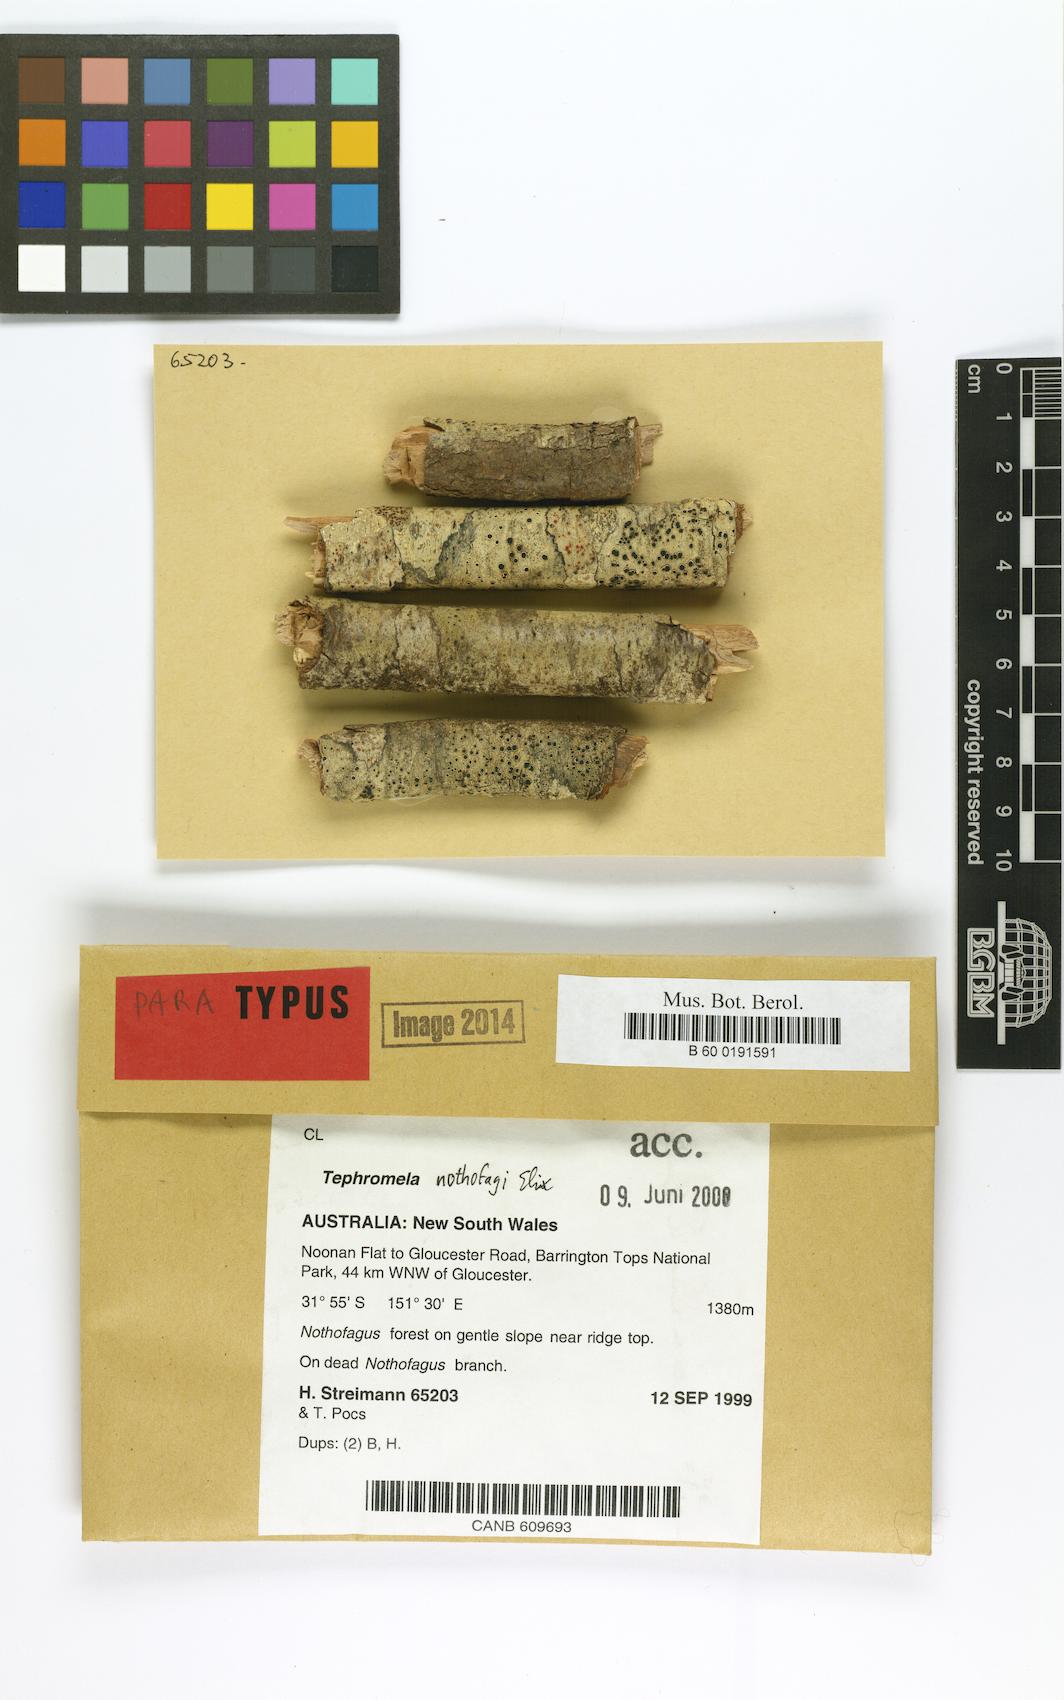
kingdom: Fungi
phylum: Ascomycota
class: Lecanoromycetes
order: Lecanorales
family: Tephromelataceae
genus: Tephromela
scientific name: Tephromela nothofagi
